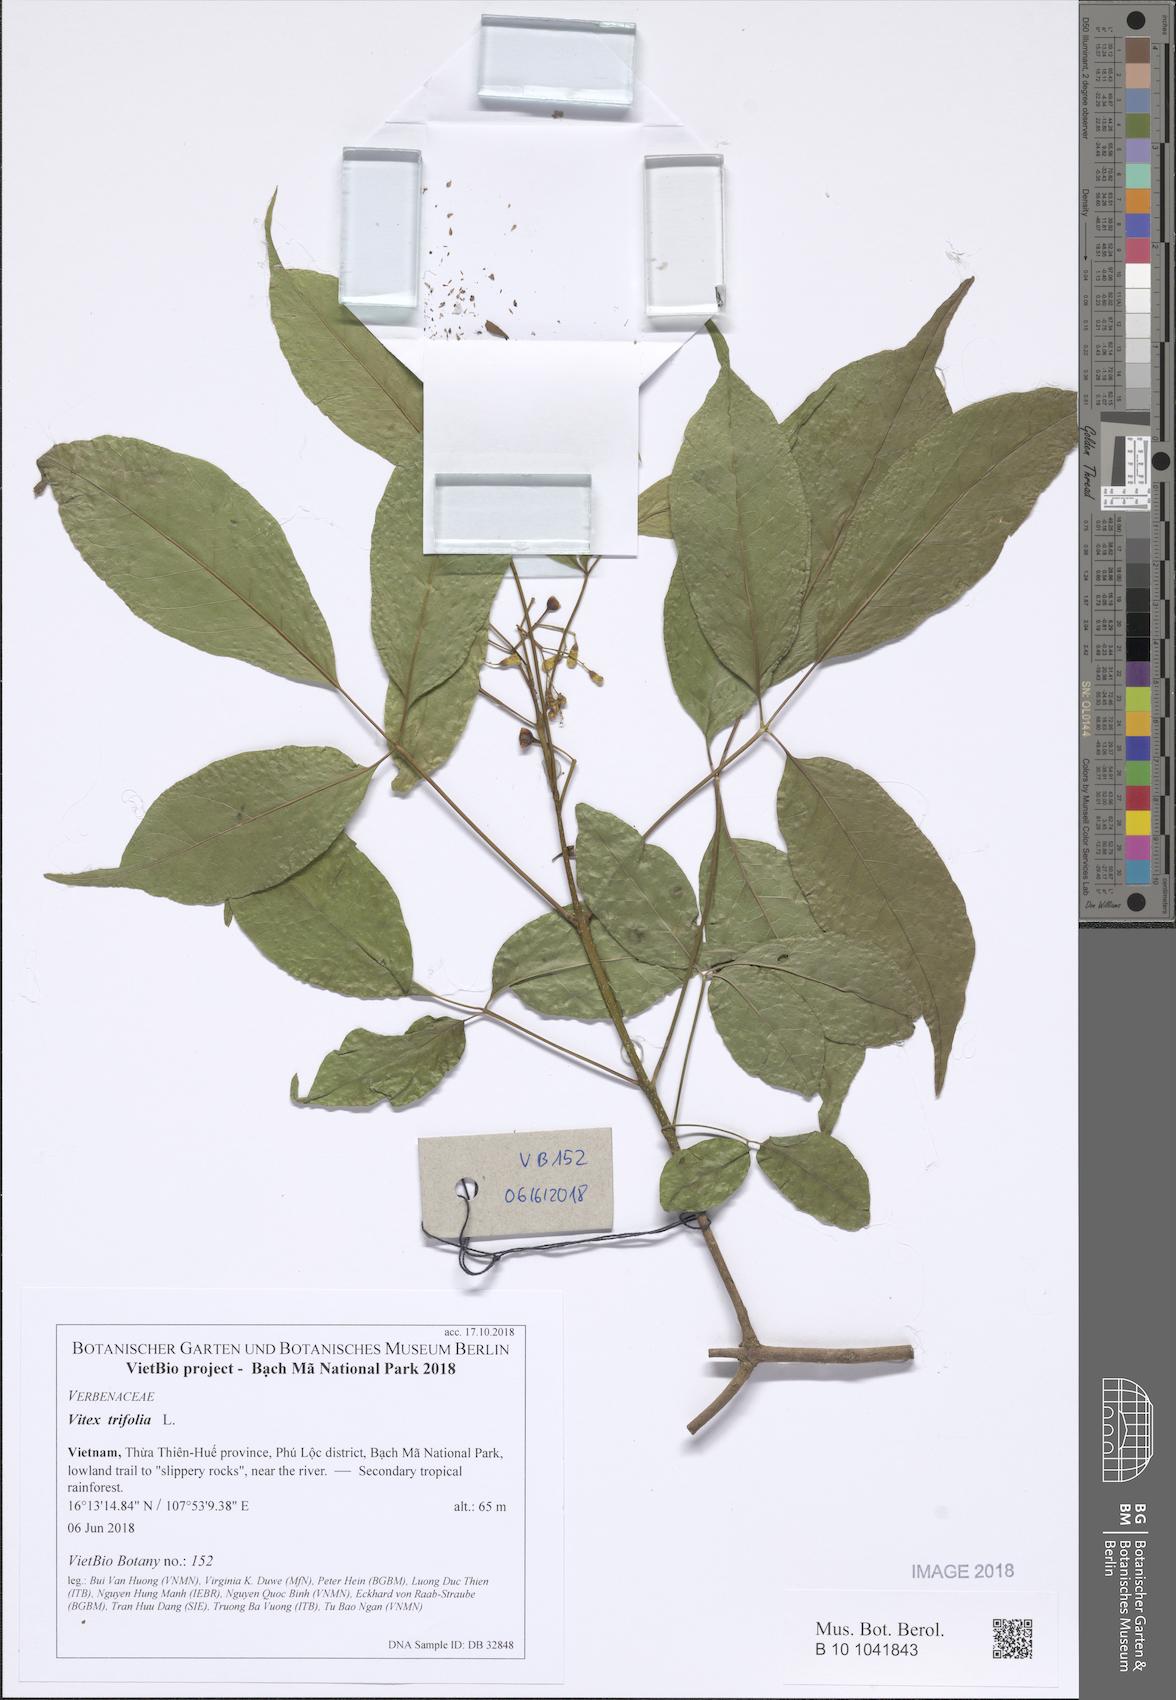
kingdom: Plantae
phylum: Tracheophyta
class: Magnoliopsida
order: Lamiales
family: Lamiaceae
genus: Vitex
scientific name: Vitex trifolia
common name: Simpleleaf chastetree
